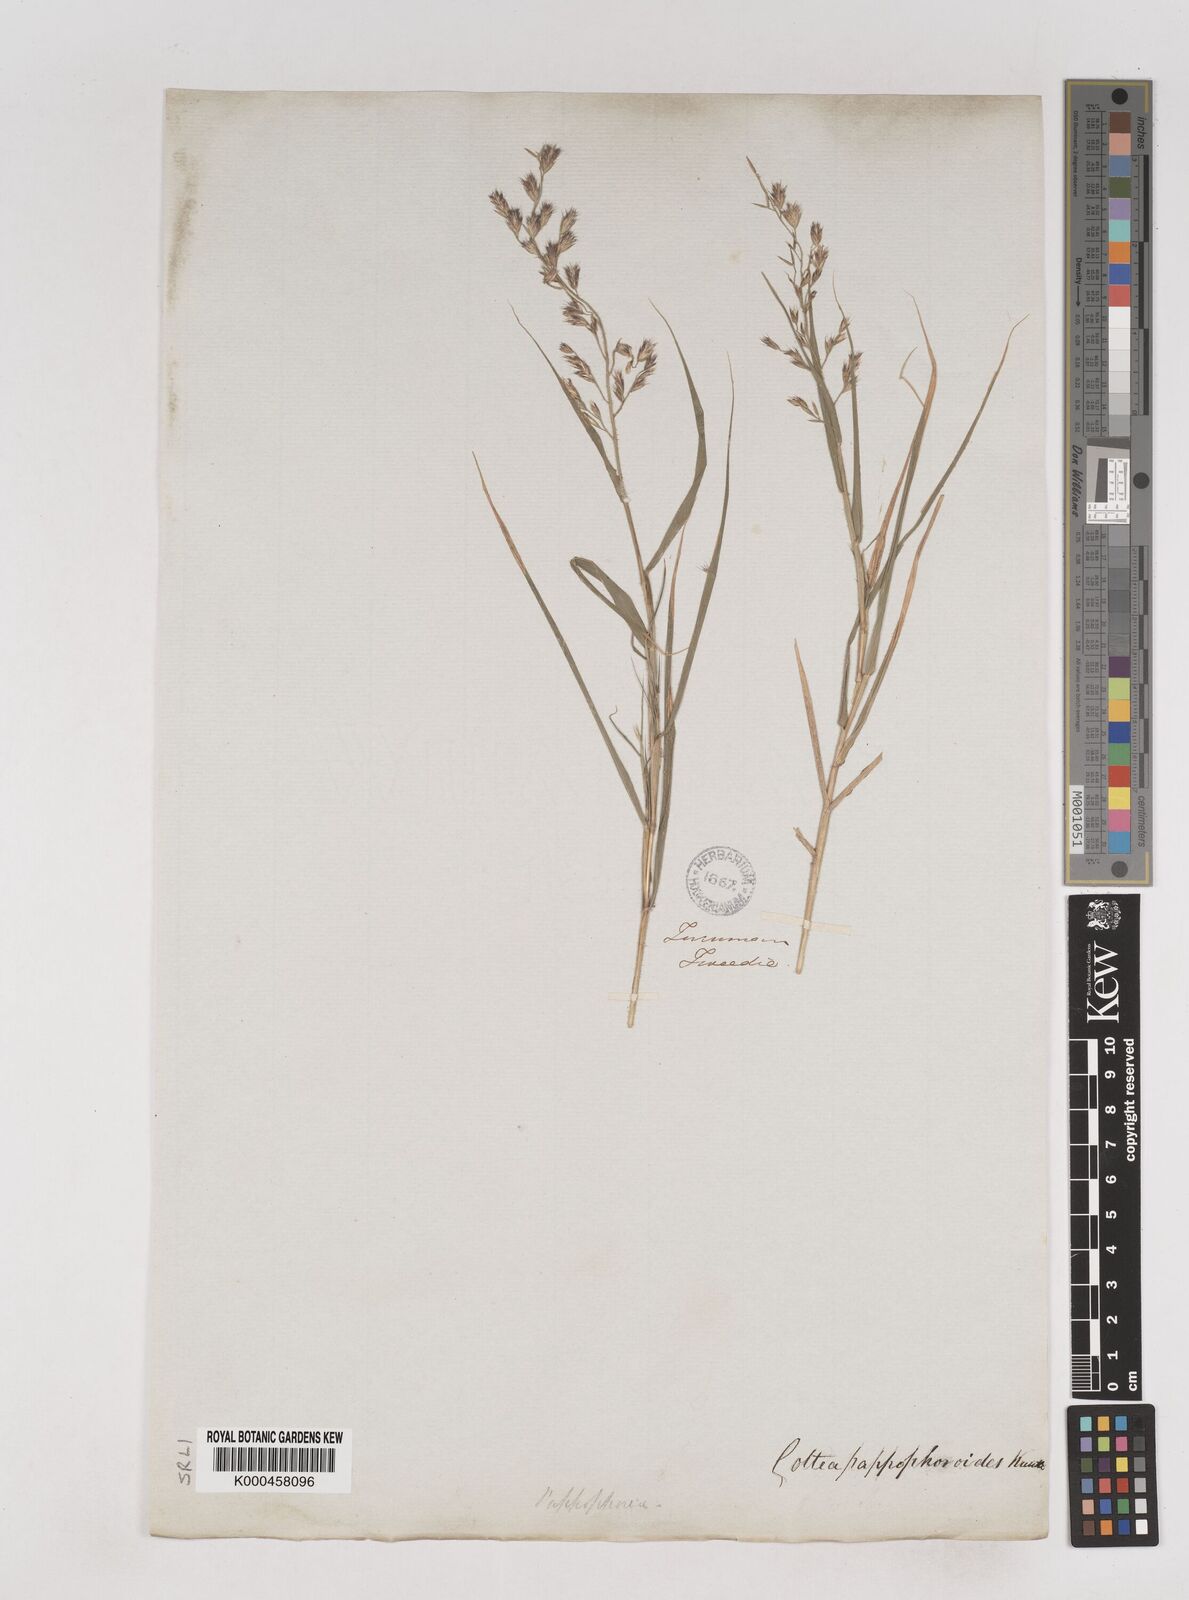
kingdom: Plantae
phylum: Tracheophyta
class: Liliopsida
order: Poales
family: Poaceae
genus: Cottea
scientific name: Cottea
